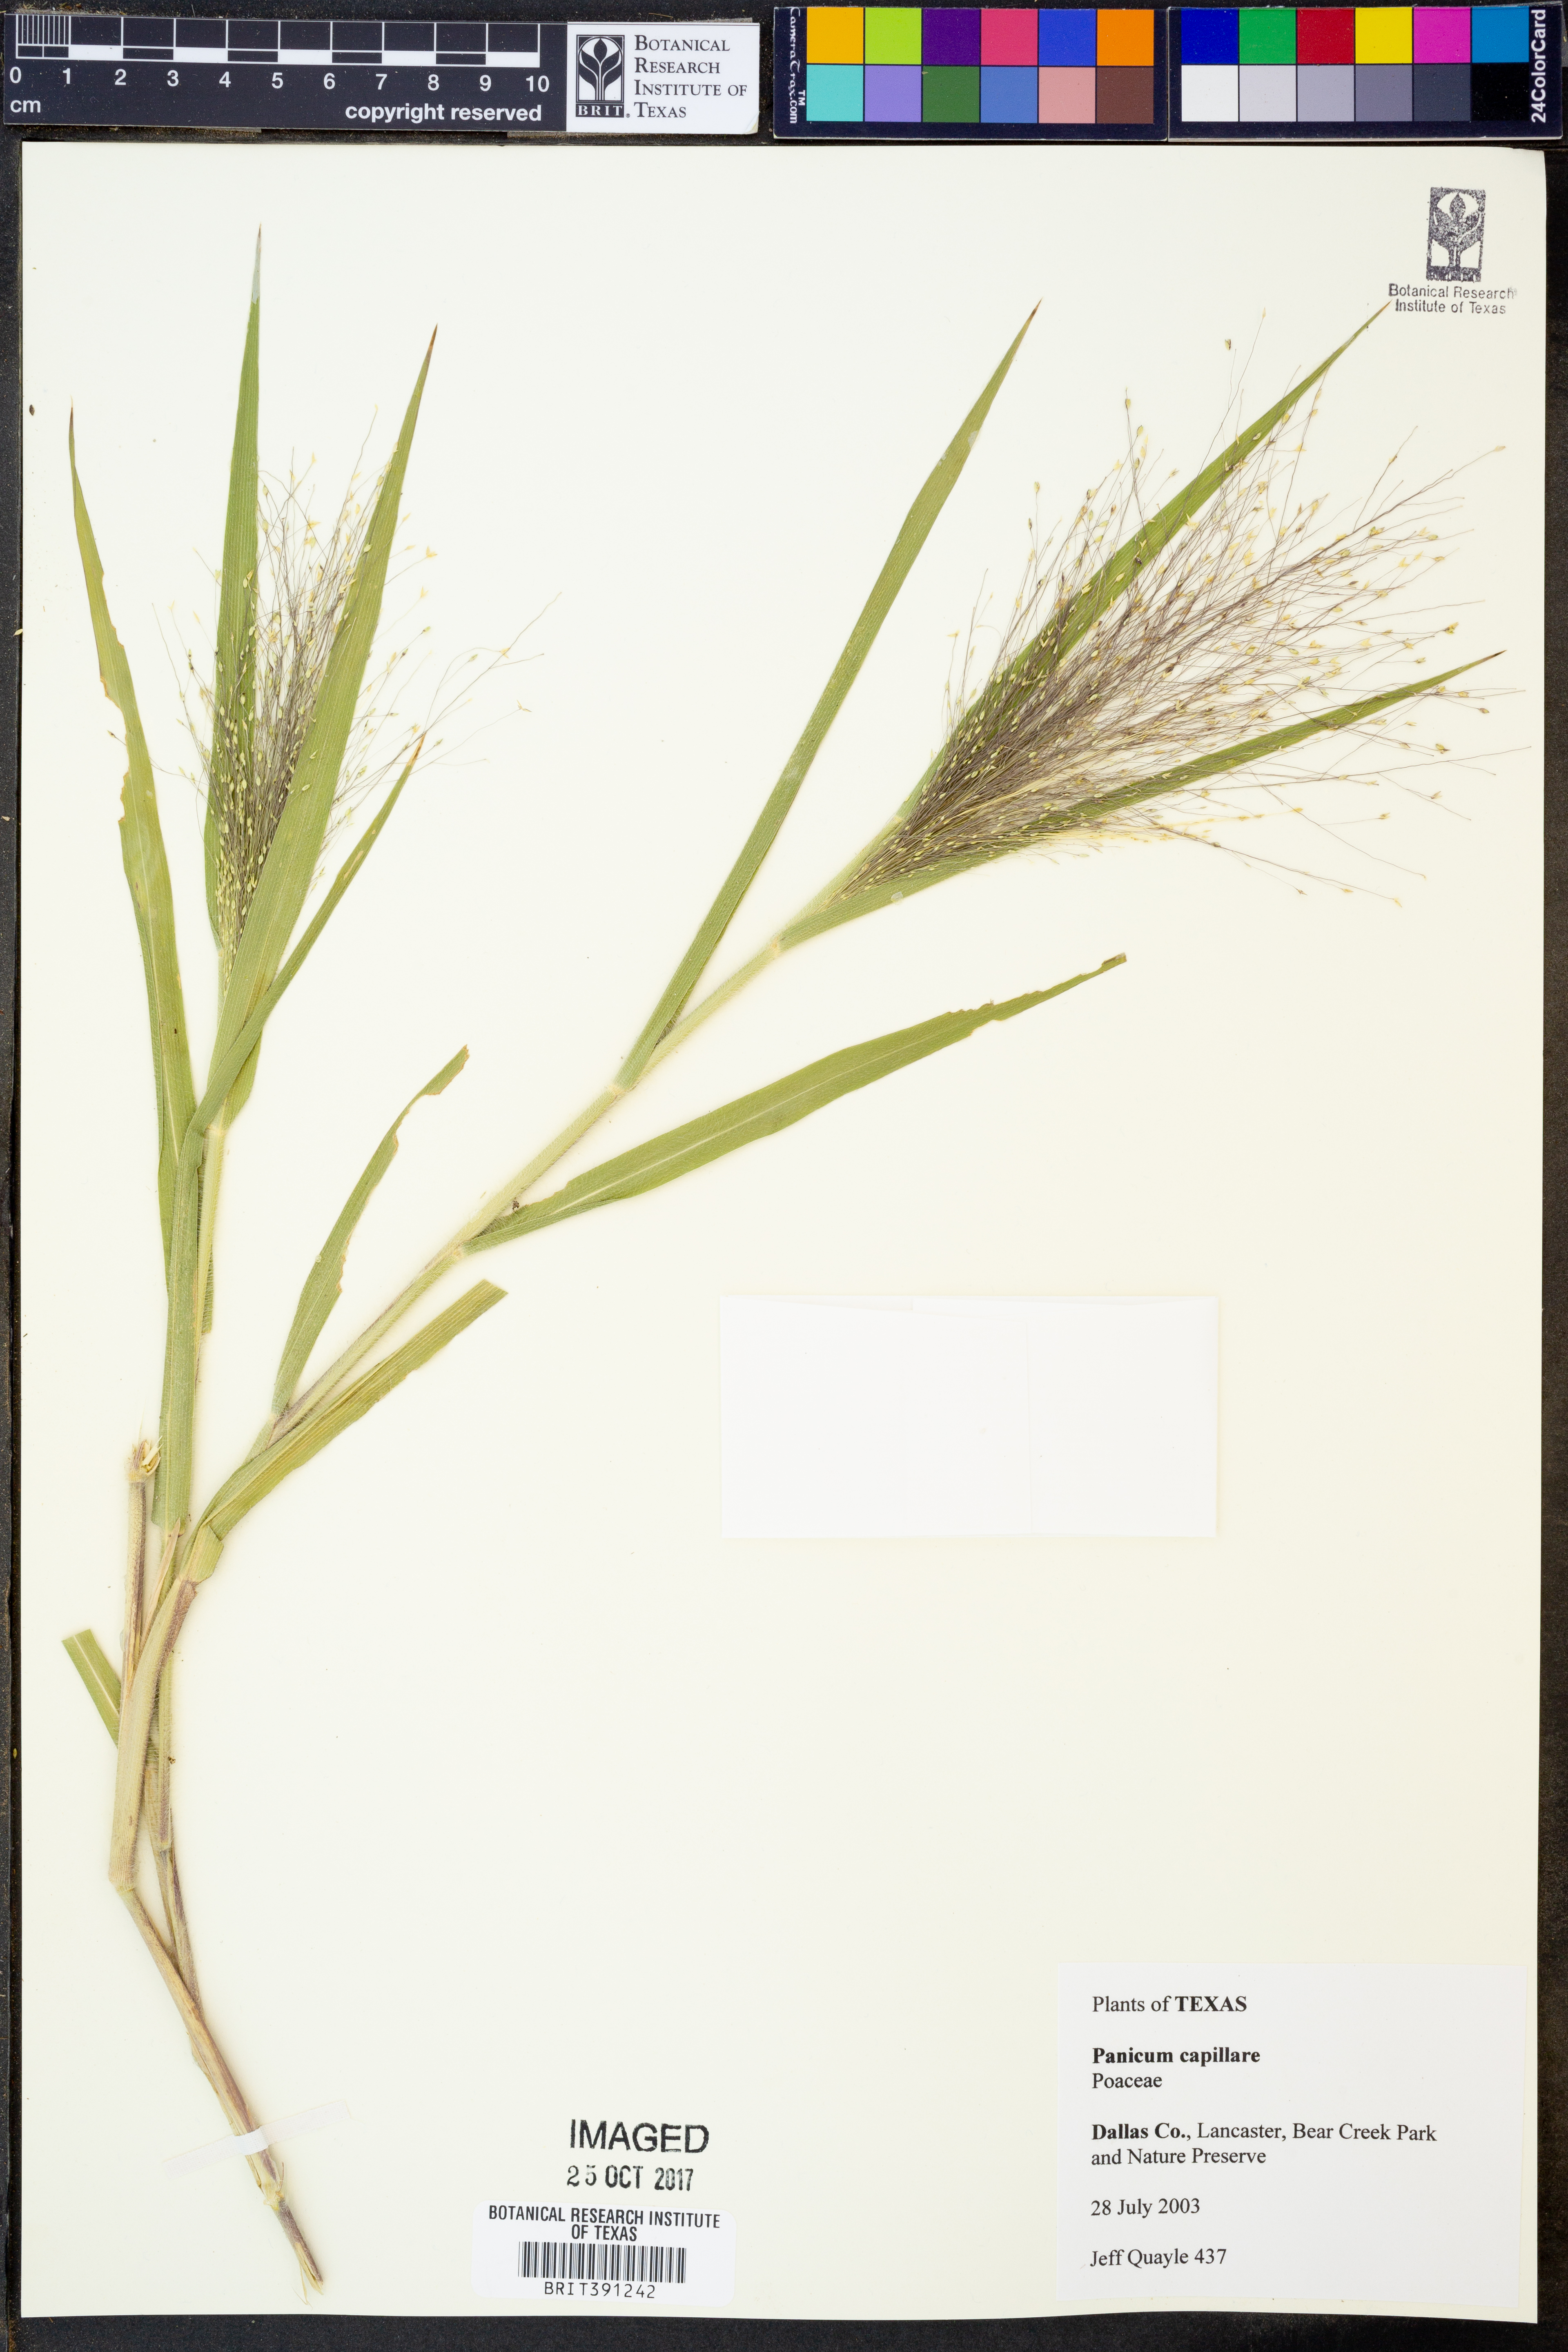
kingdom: Plantae
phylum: Tracheophyta
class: Liliopsida
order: Poales
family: Poaceae
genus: Panicum
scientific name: Panicum capillare
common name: Witch-grass
